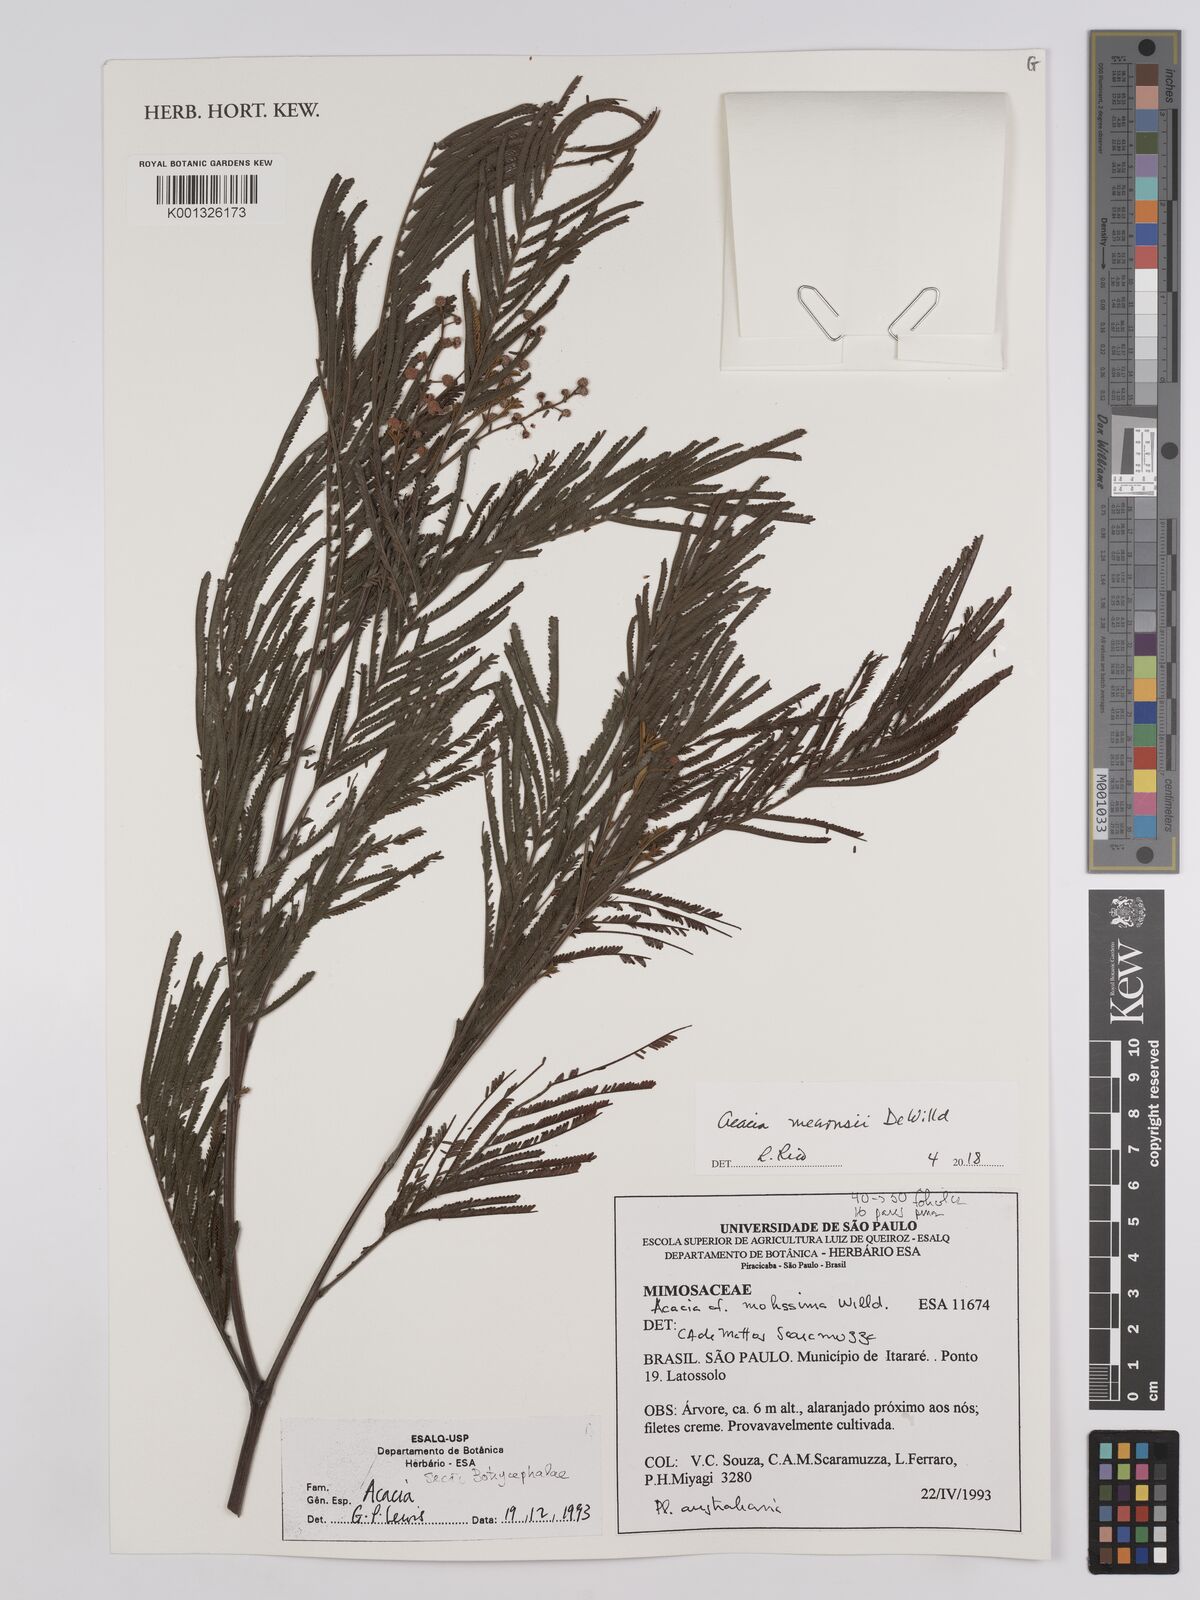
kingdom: Plantae
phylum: Tracheophyta
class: Magnoliopsida
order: Fabales
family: Fabaceae
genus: Acacia
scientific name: Acacia mearnsii
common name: Black wattle
